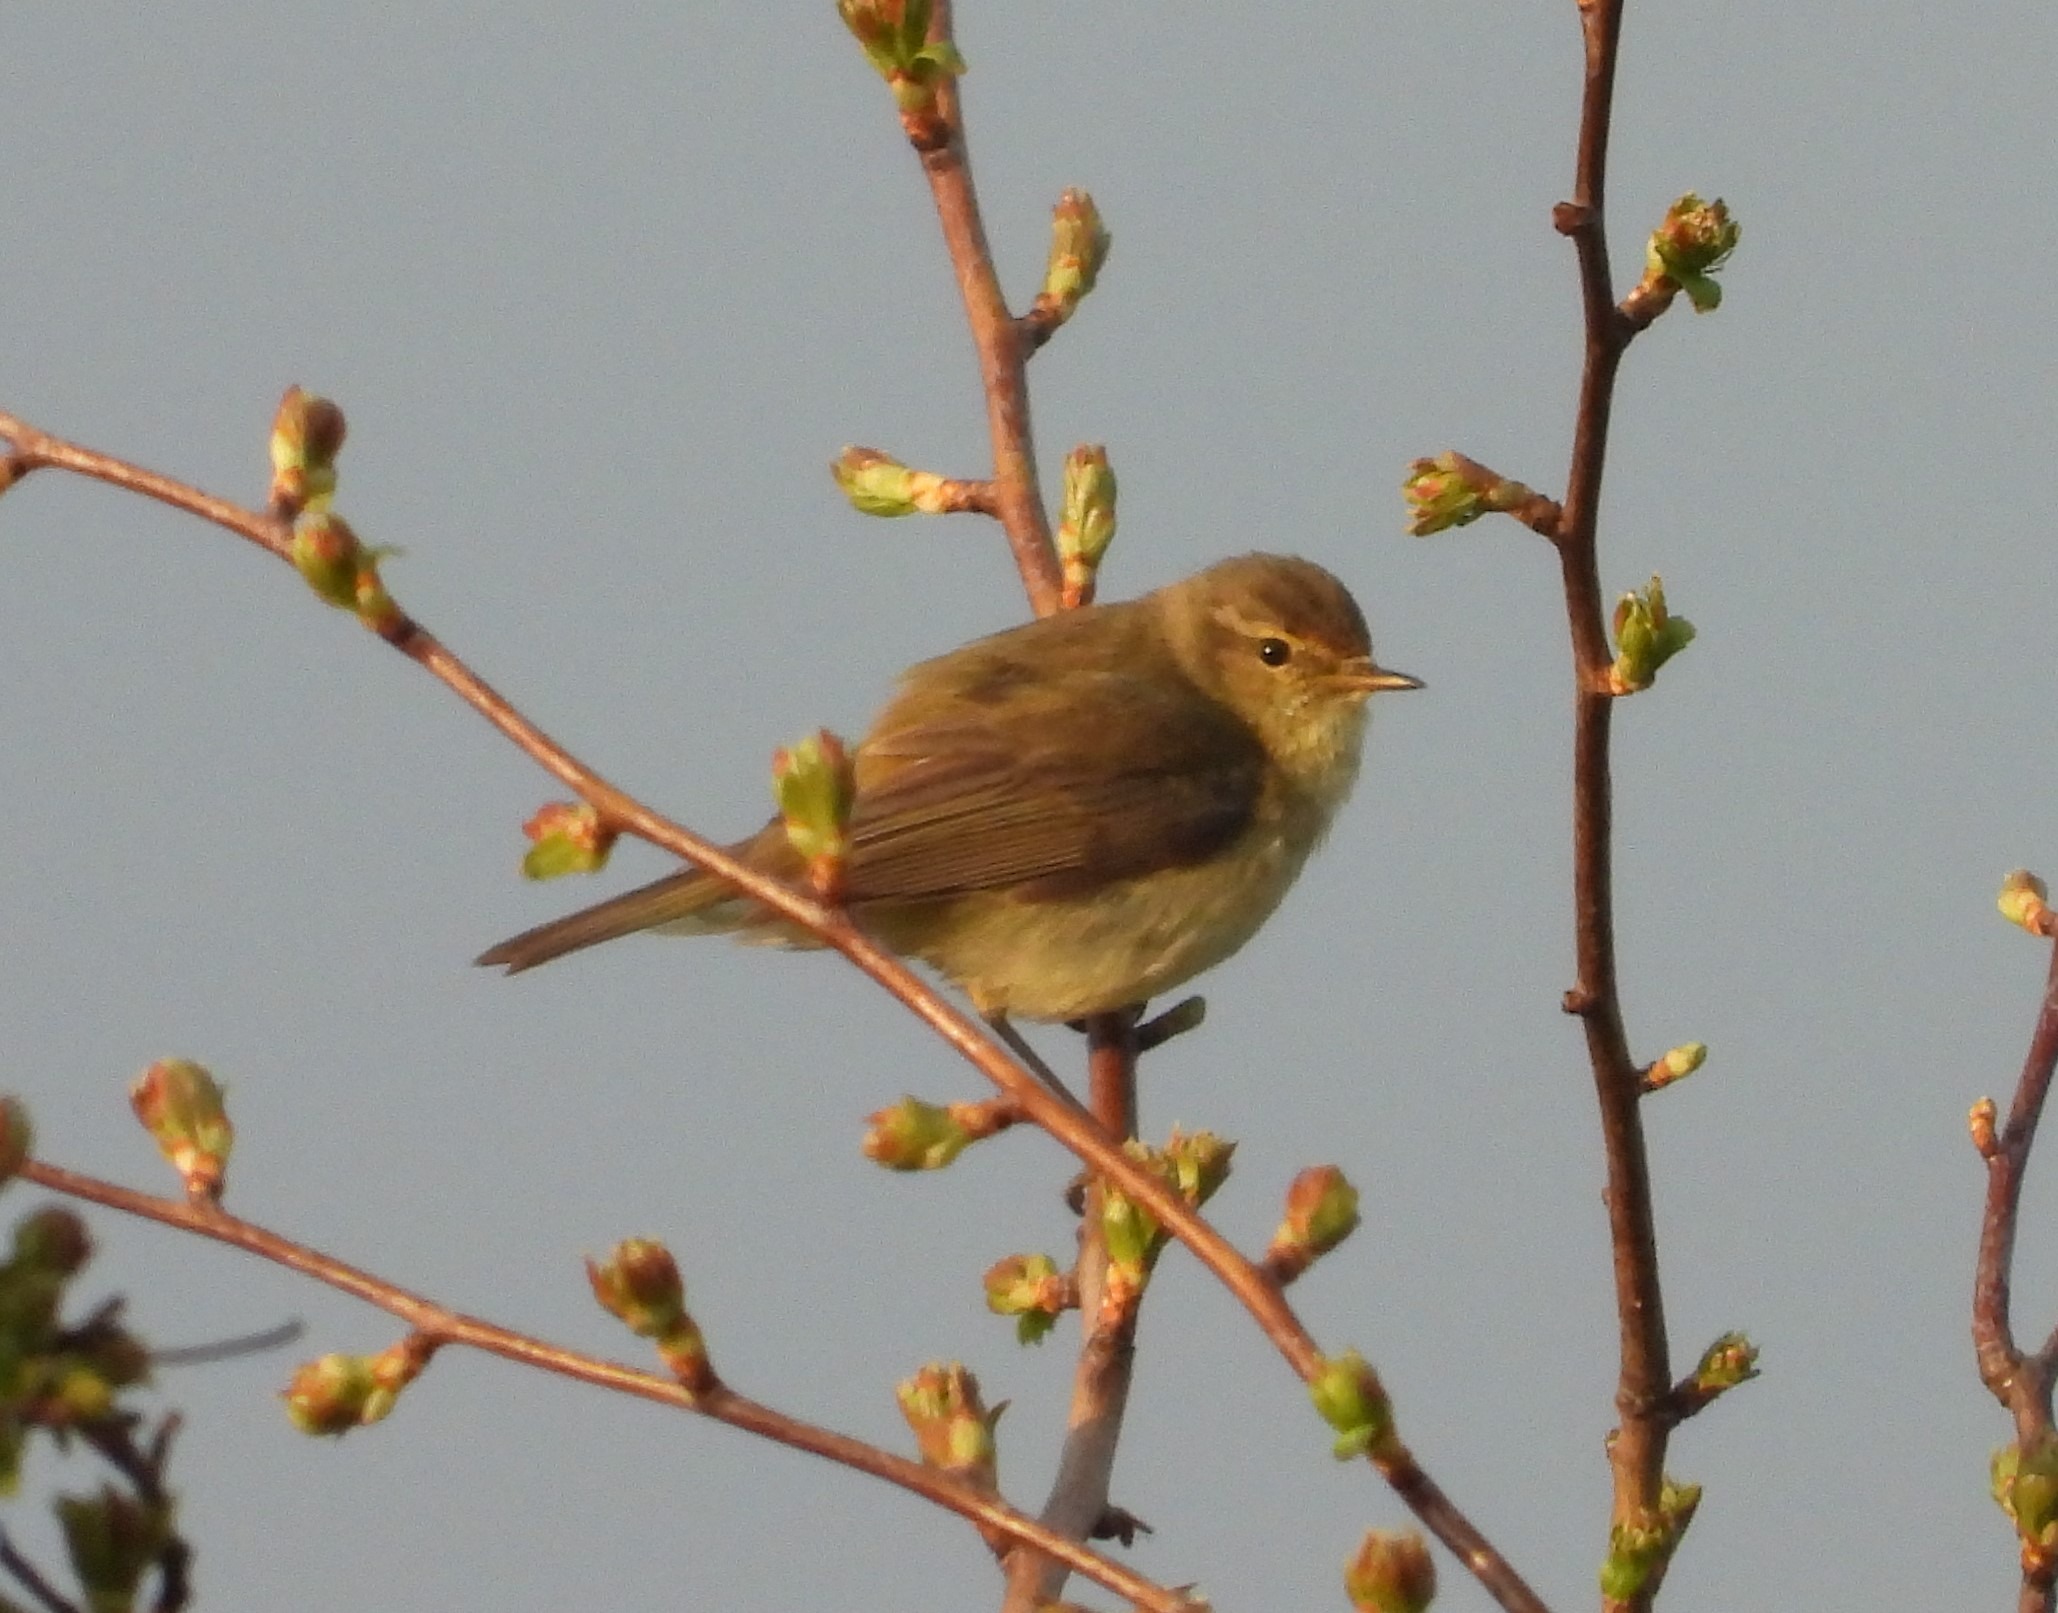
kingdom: Animalia
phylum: Chordata
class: Aves
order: Passeriformes
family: Phylloscopidae
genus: Phylloscopus
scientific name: Phylloscopus collybita
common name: Gransanger
